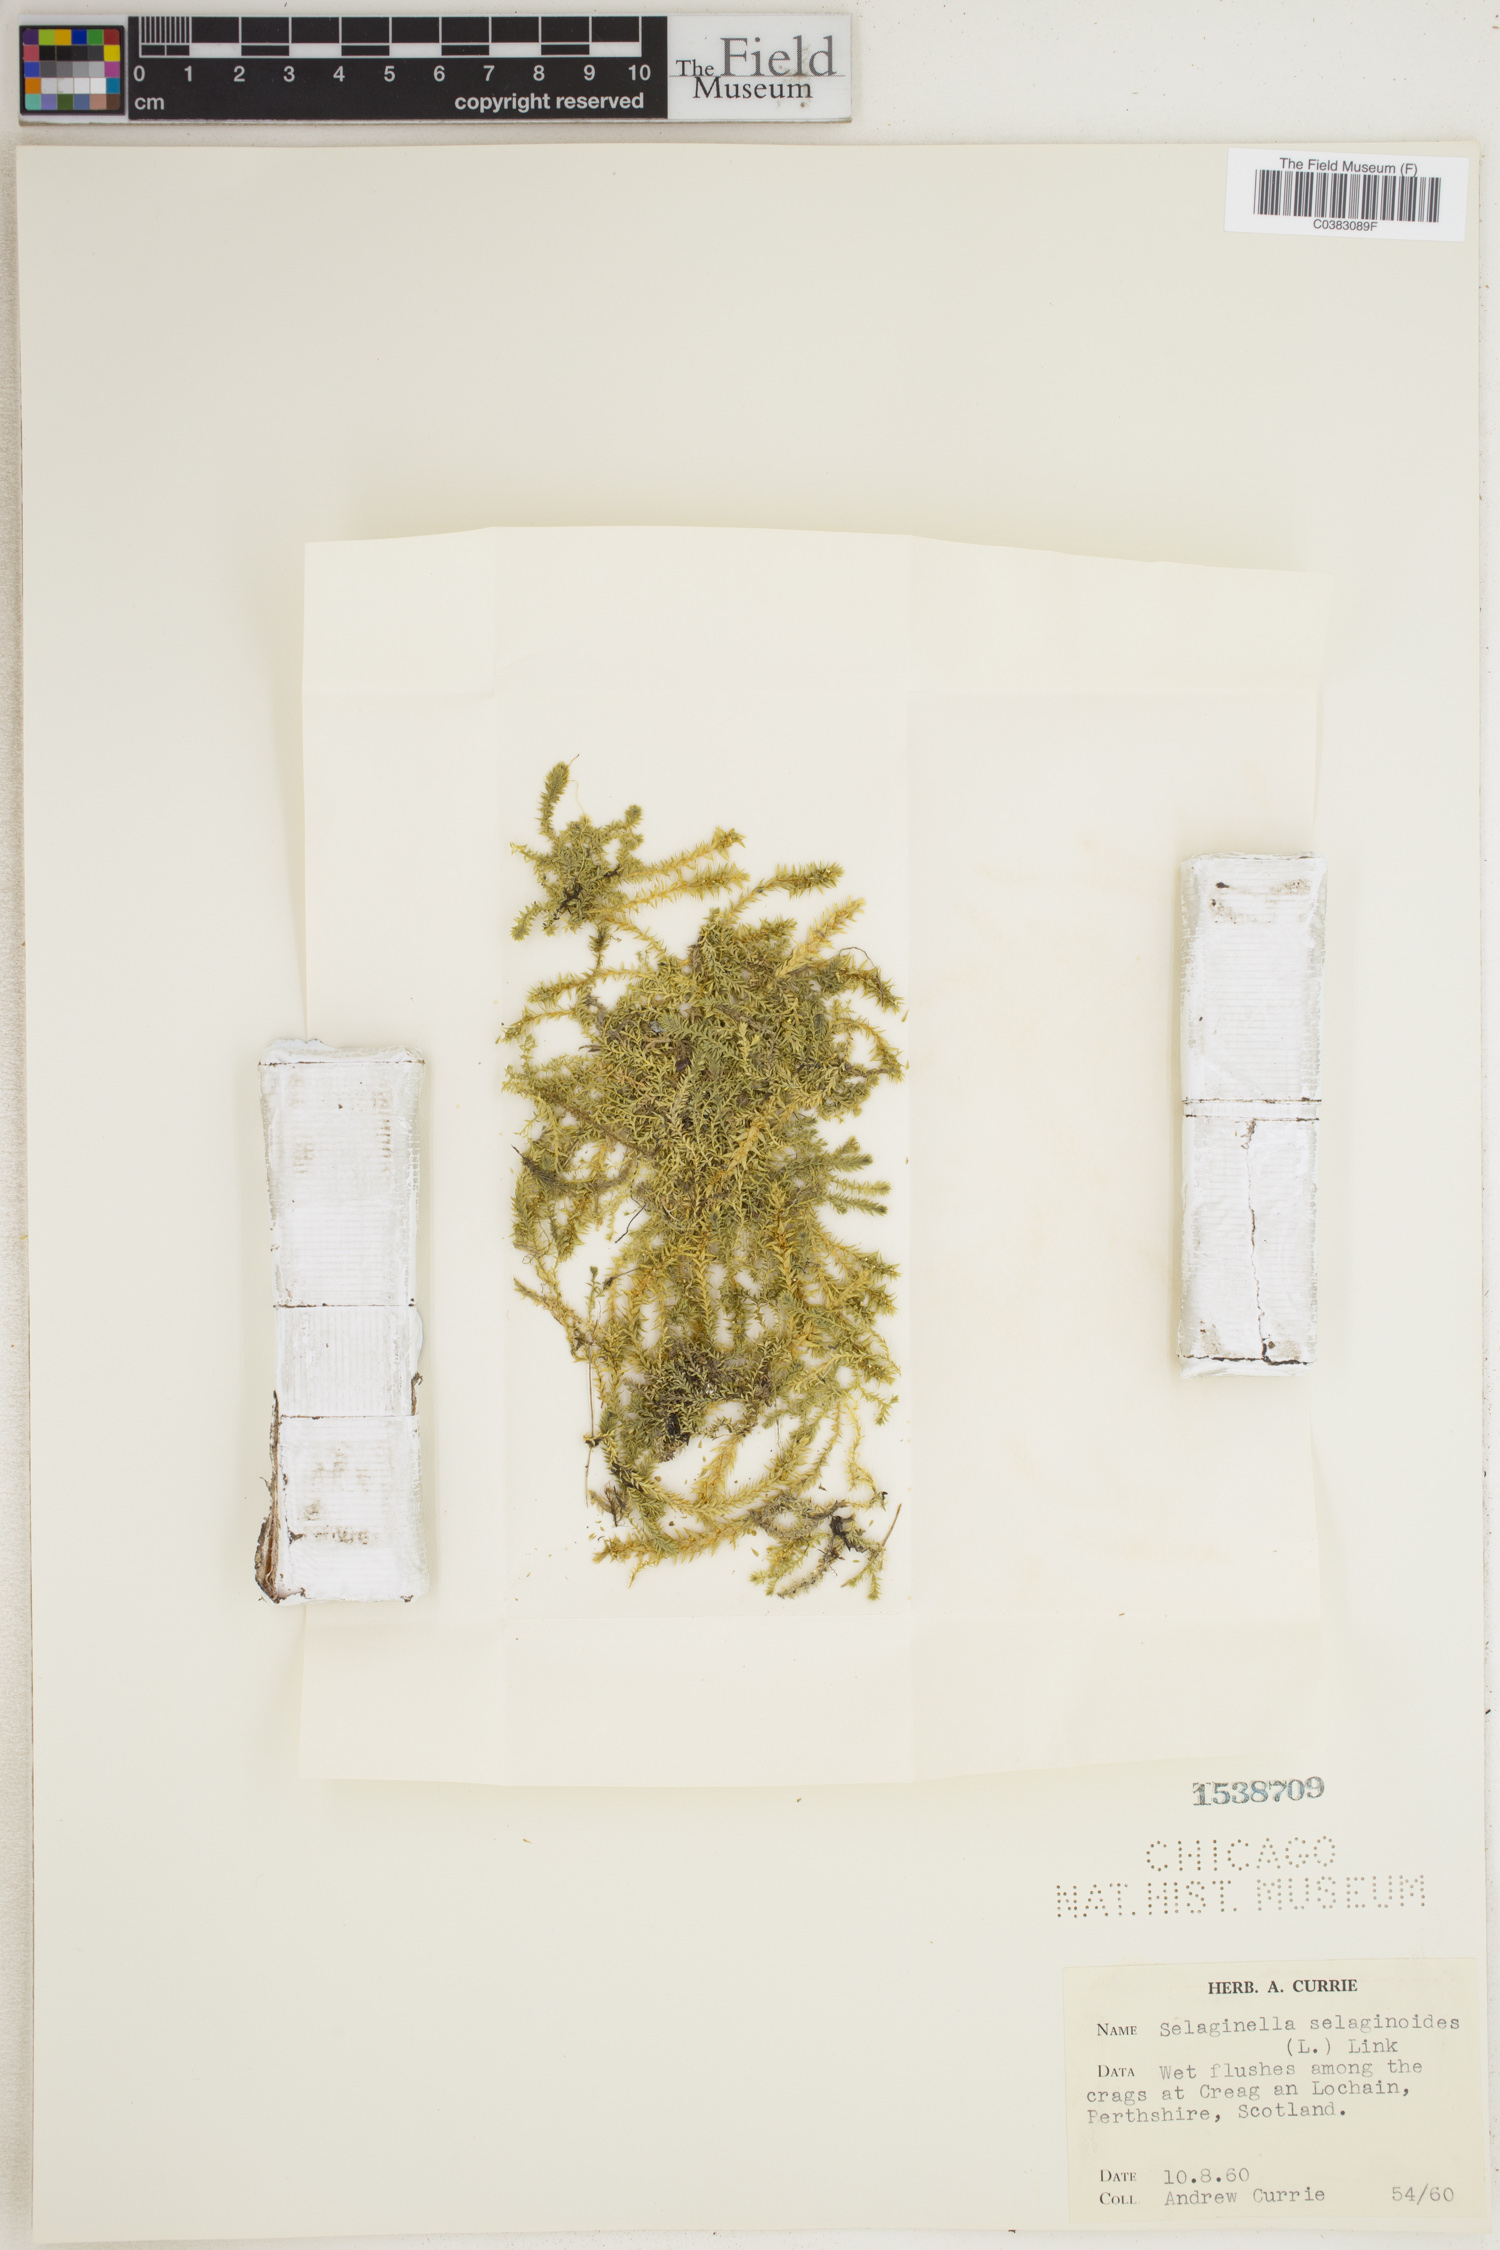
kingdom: Plantae
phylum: Tracheophyta
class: Lycopodiopsida
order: Selaginellales
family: Selaginellaceae
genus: Selaginella
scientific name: Selaginella selaginoides
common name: Prickly mountain-moss
